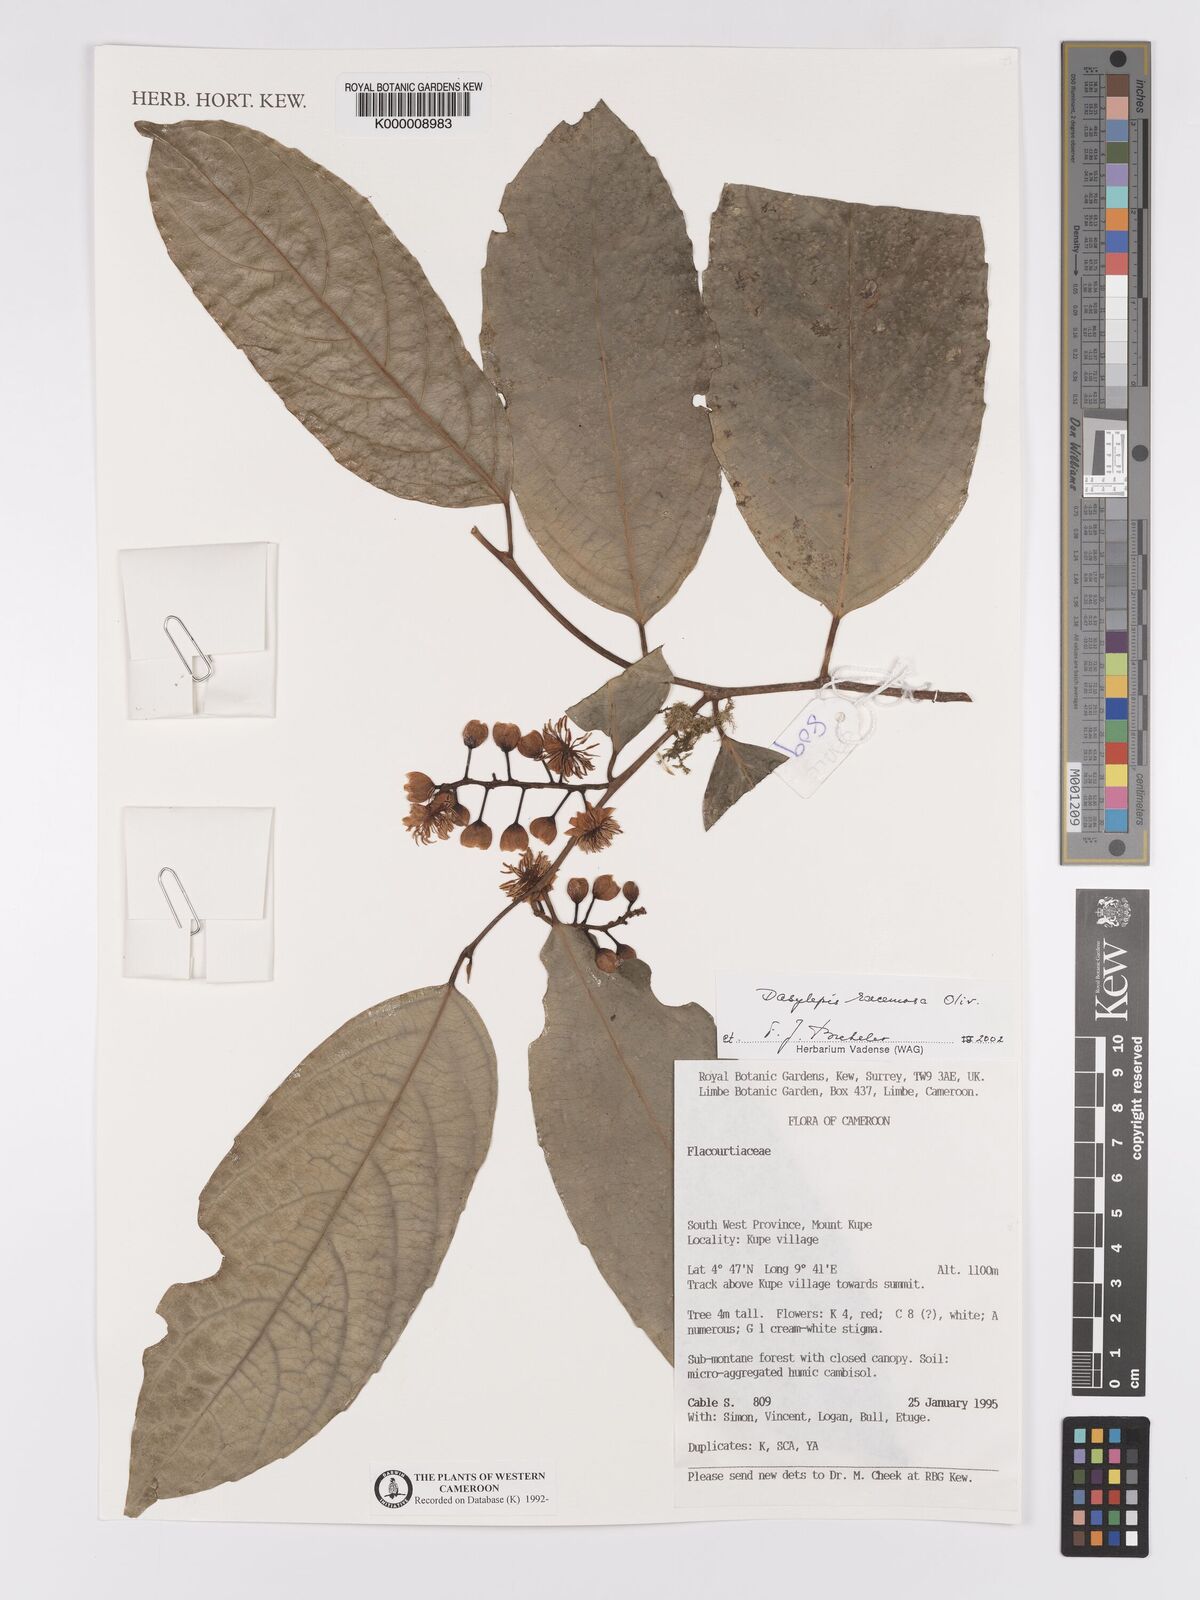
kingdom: Plantae
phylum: Tracheophyta
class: Magnoliopsida
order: Malpighiales
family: Achariaceae
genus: Dasylepis
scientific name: Dasylepis racemosa
